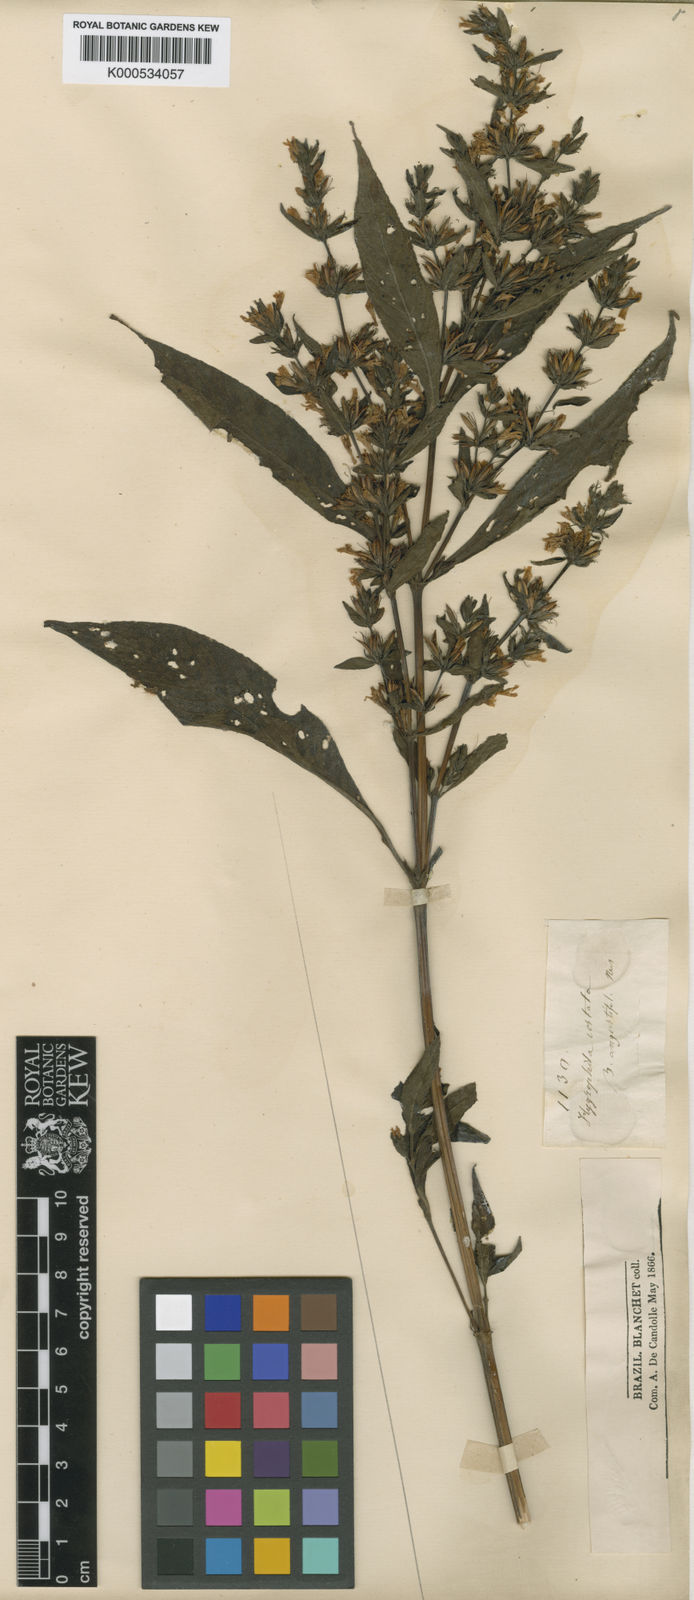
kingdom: Plantae
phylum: Tracheophyta
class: Magnoliopsida
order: Lamiales
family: Acanthaceae
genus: Hygrophila
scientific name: Hygrophila costata
